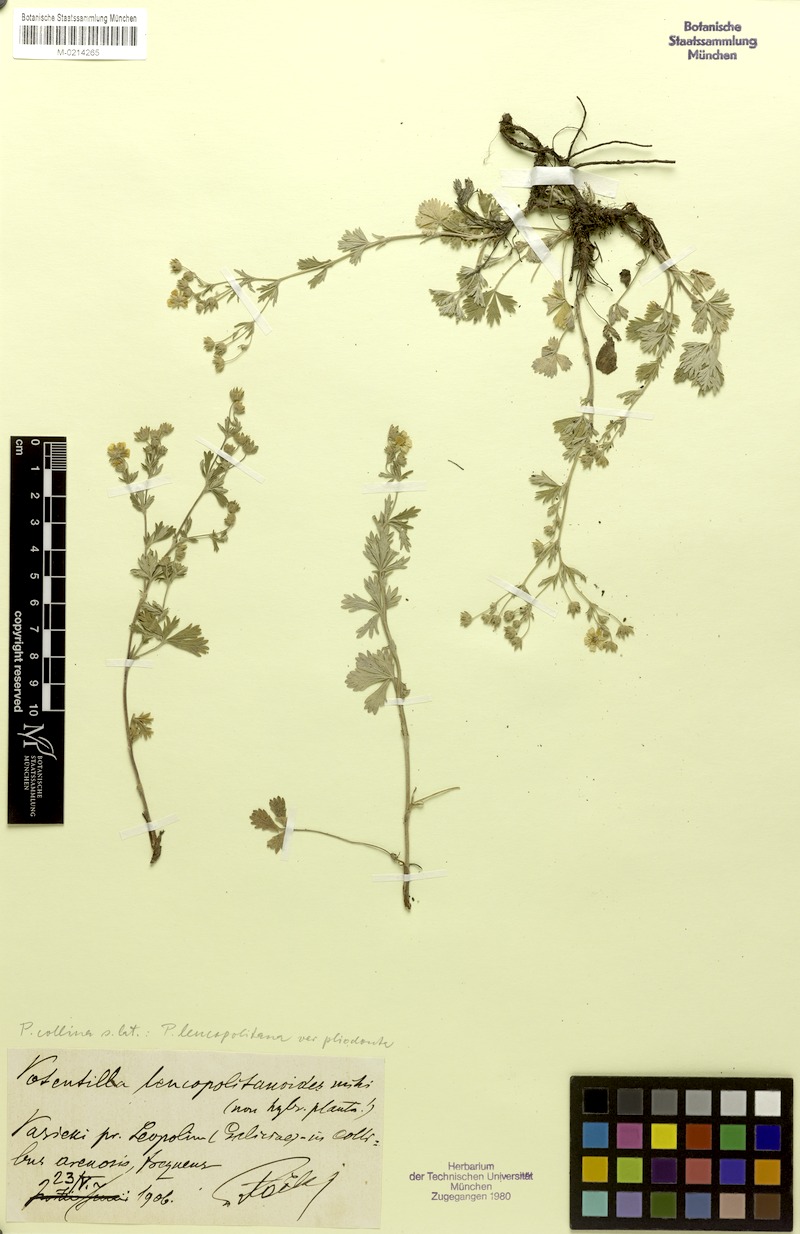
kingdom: Plantae
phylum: Tracheophyta
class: Magnoliopsida
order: Rosales
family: Rosaceae
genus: Potentilla
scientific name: Potentilla collina
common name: Palmleaf cinquefoil
